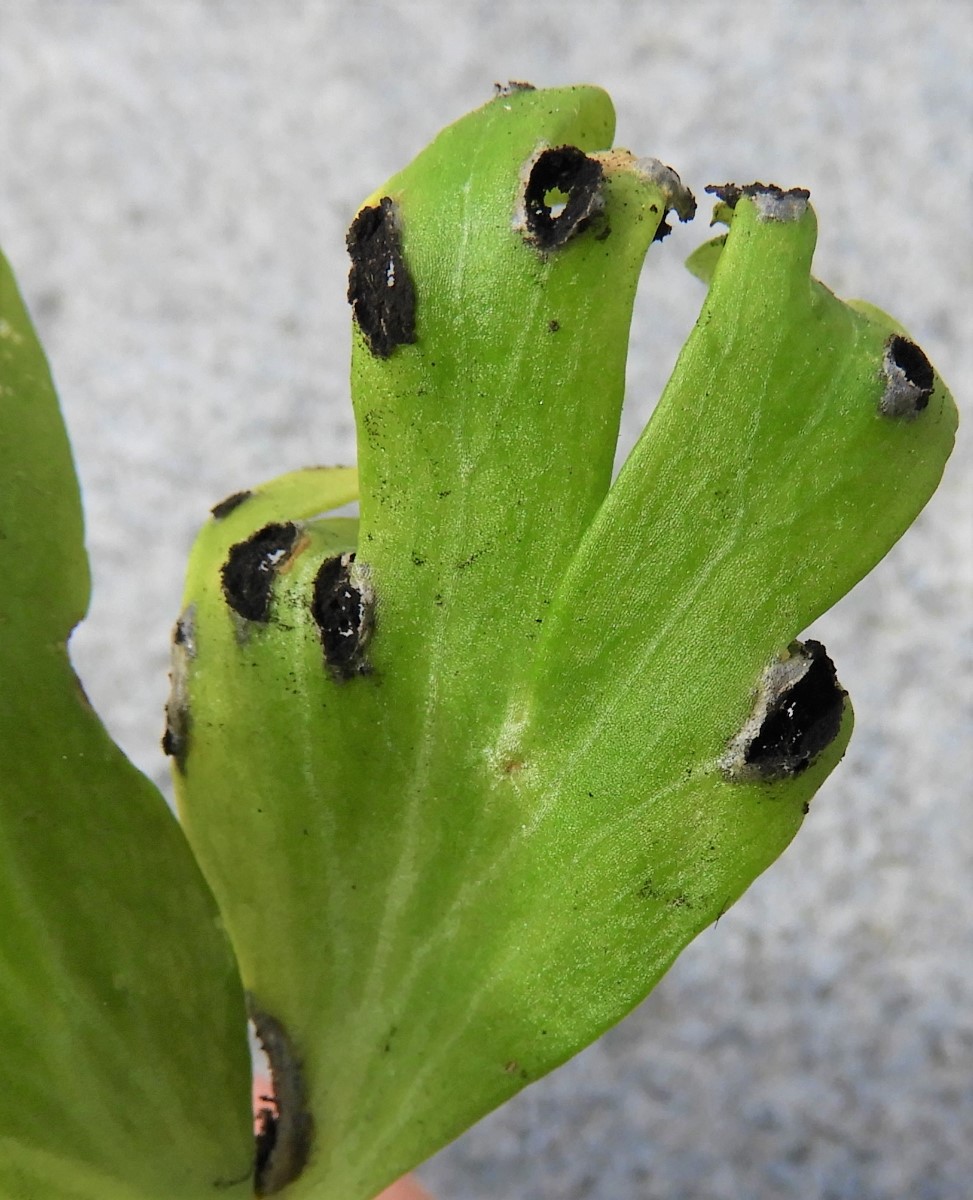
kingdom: Fungi
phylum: Basidiomycota
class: Ustilaginomycetes
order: Urocystidales
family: Urocystidaceae
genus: Urocystis
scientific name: Urocystis eranthidis
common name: erantis-brand
